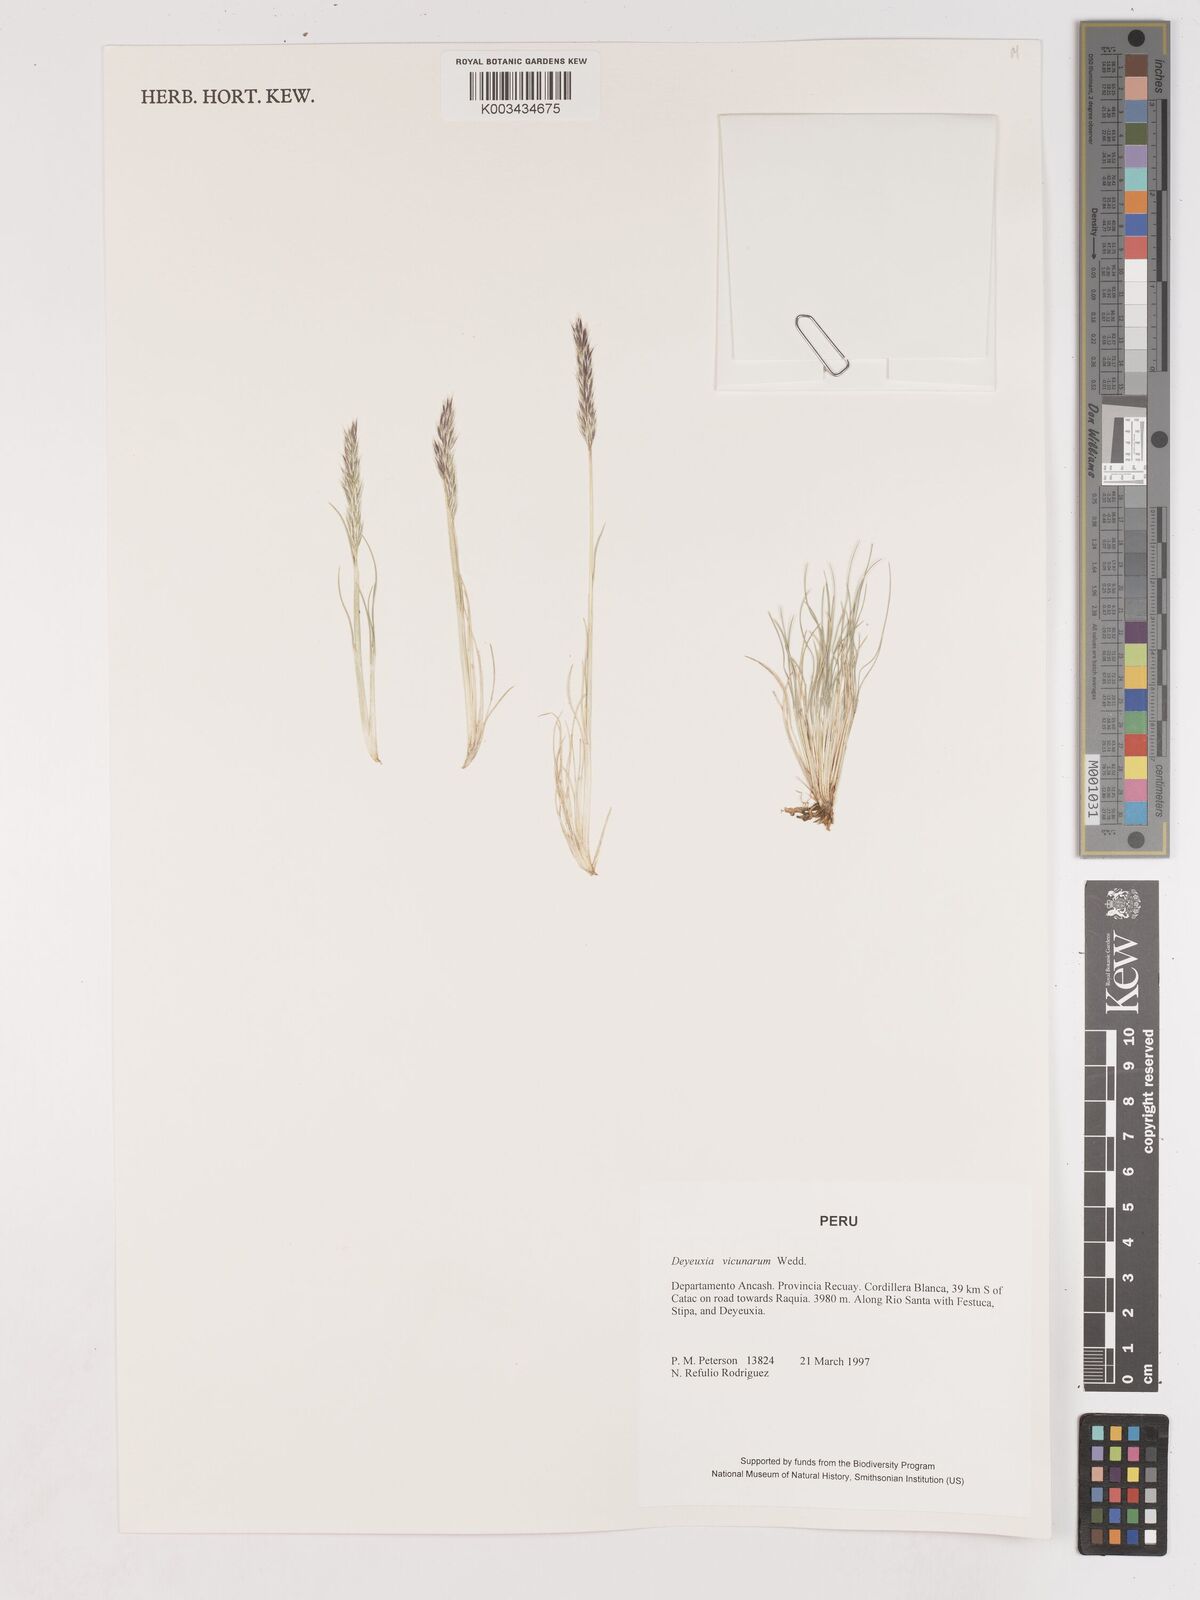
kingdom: Plantae
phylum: Tracheophyta
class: Liliopsida
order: Poales
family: Poaceae
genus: Cinnagrostis
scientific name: Cinnagrostis vicunarum
